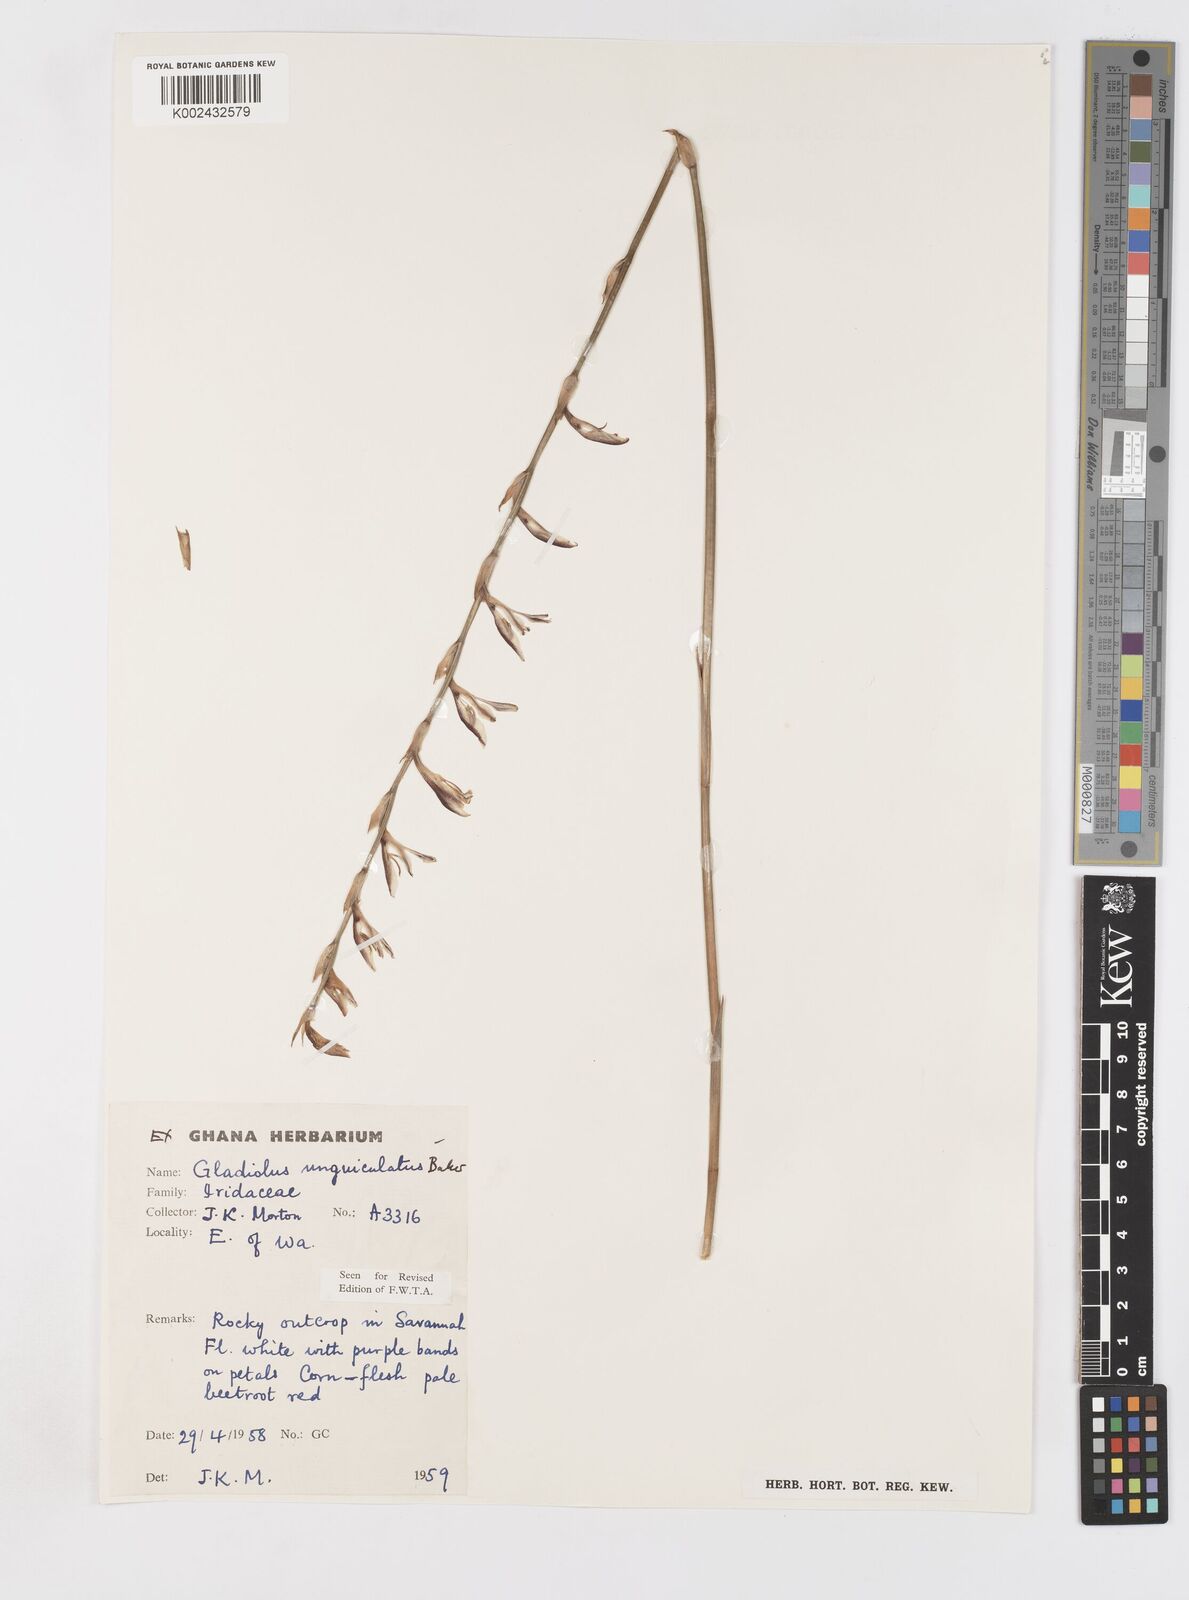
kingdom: Plantae
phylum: Tracheophyta
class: Liliopsida
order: Asparagales
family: Iridaceae
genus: Gladiolus
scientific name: Gladiolus unguiculatus
